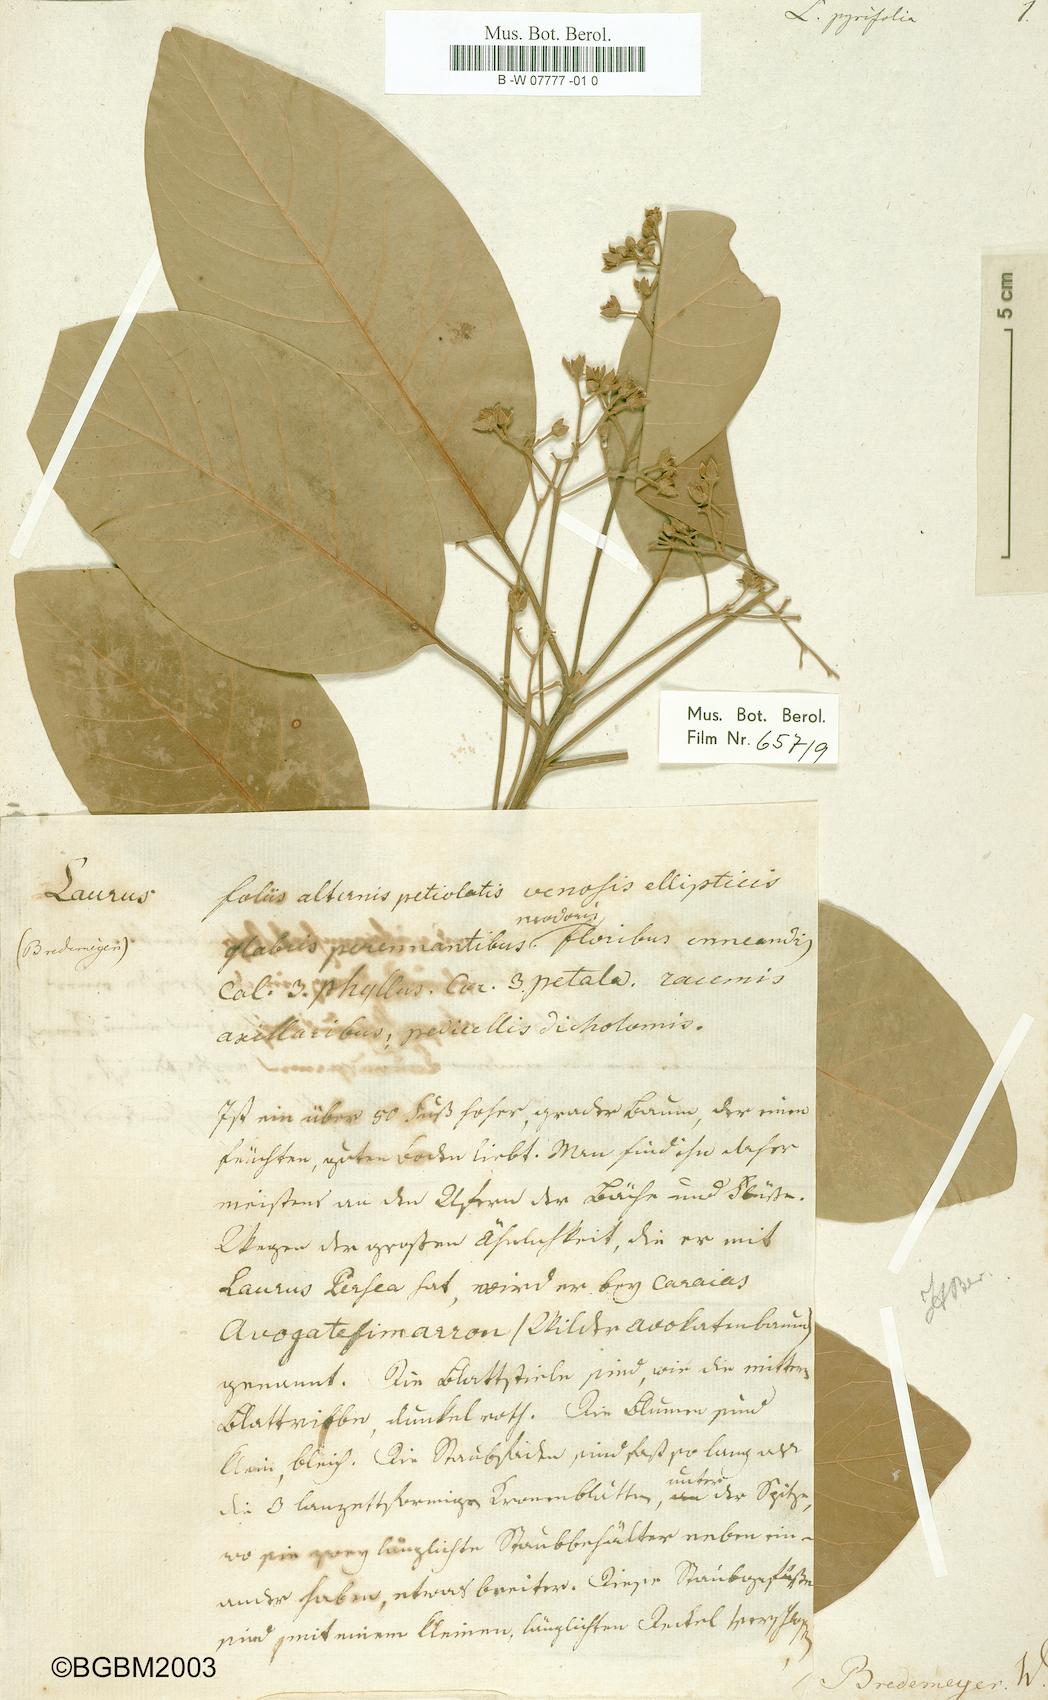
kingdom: Plantae
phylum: Tracheophyta
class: Magnoliopsida
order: Laurales
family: Lauraceae
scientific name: Lauraceae
